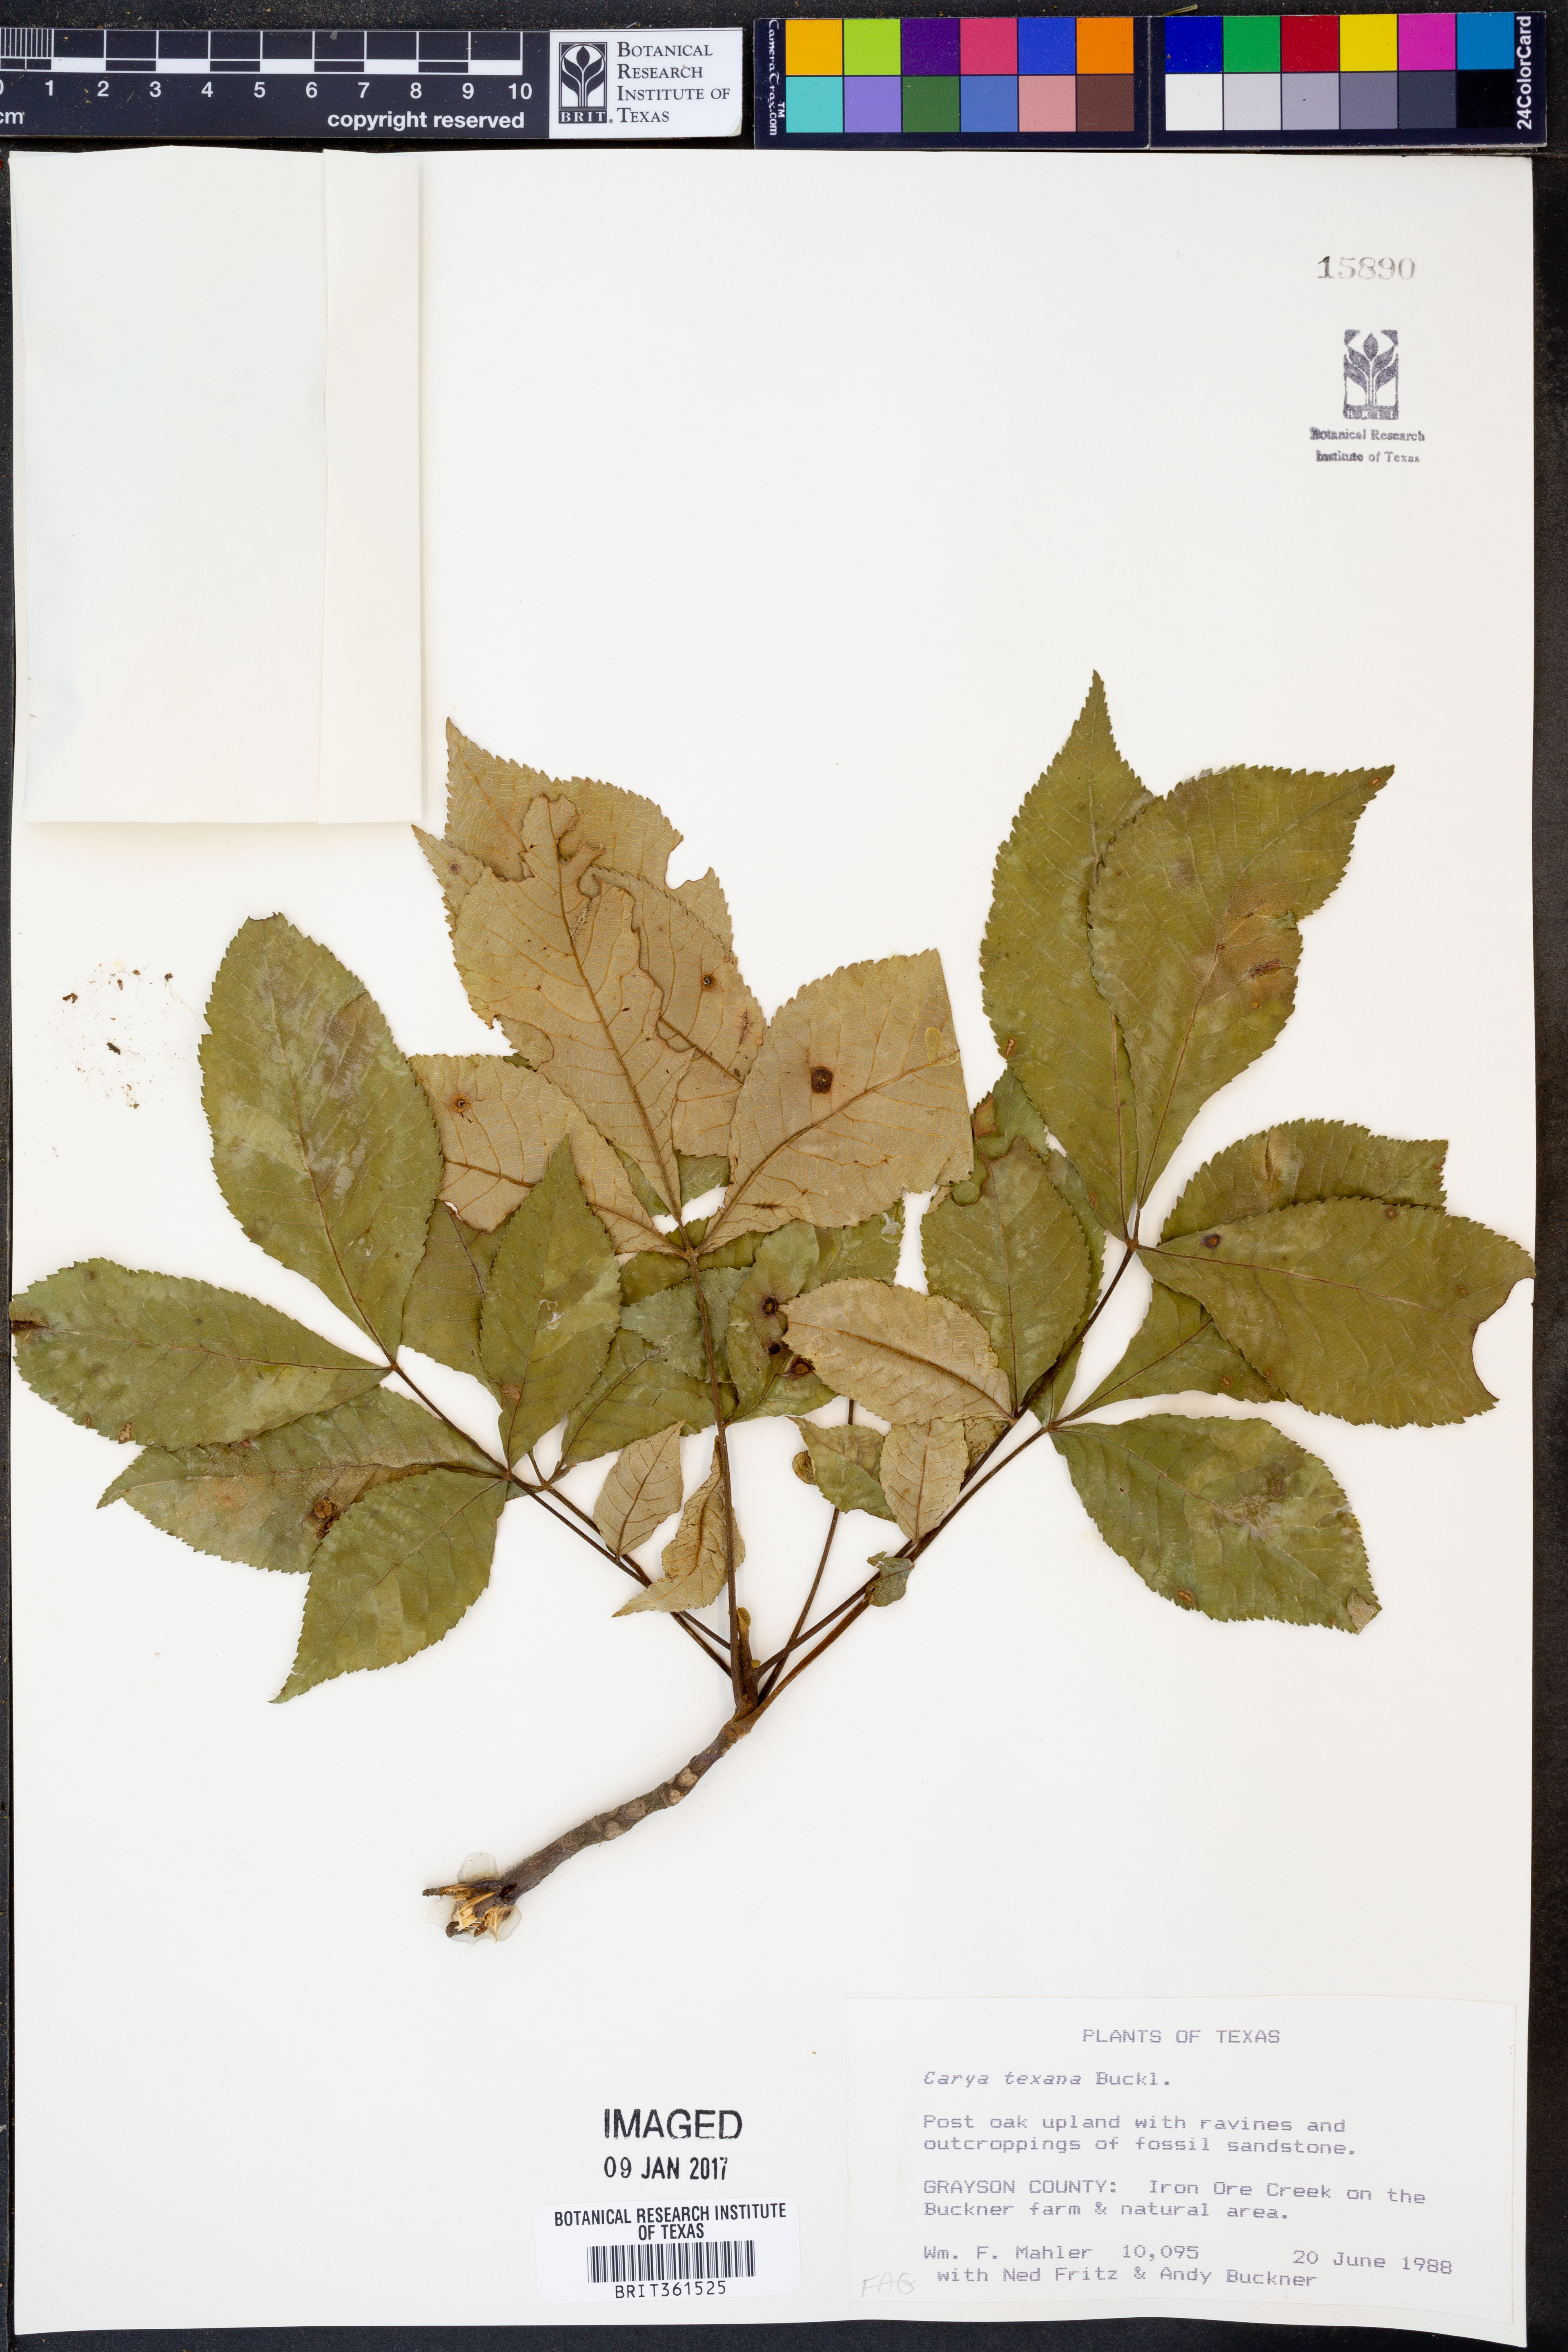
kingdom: Plantae
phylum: Tracheophyta
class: Magnoliopsida
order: Fagales
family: Juglandaceae
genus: Carya
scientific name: Carya texana
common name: Black hickory
